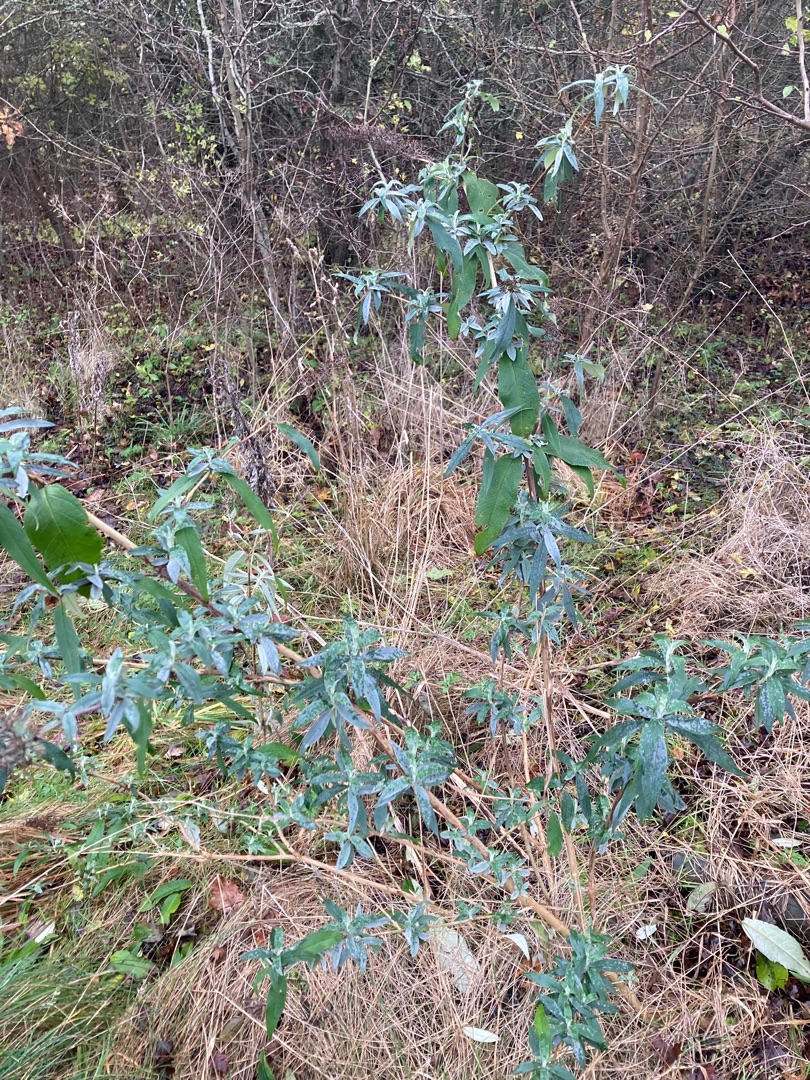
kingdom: Plantae
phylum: Tracheophyta
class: Magnoliopsida
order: Lamiales
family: Scrophulariaceae
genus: Buddleja
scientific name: Buddleja davidii
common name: Sommerfuglebusk
